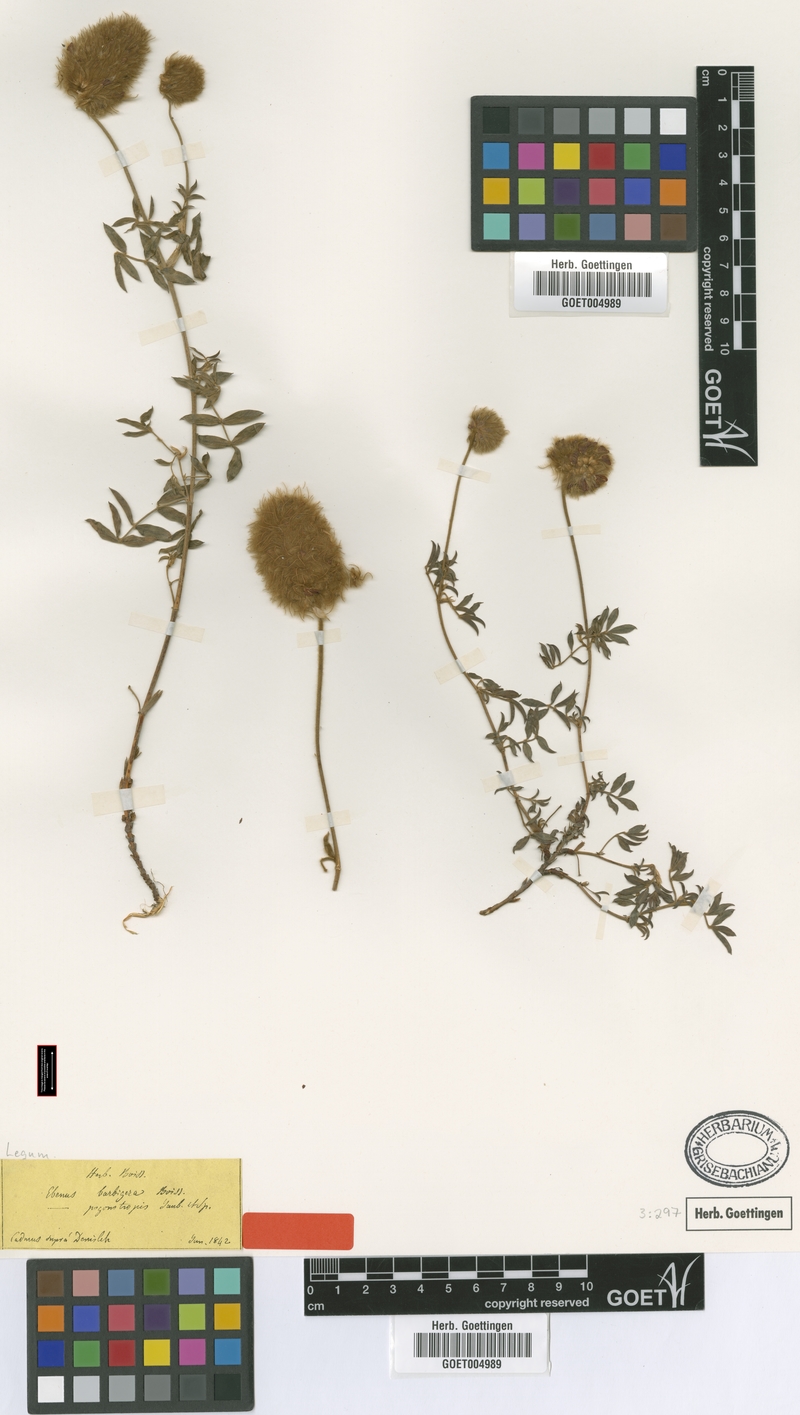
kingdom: Plantae
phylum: Tracheophyta
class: Magnoliopsida
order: Fabales
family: Fabaceae
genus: Ebenus
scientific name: Ebenus barbigera
